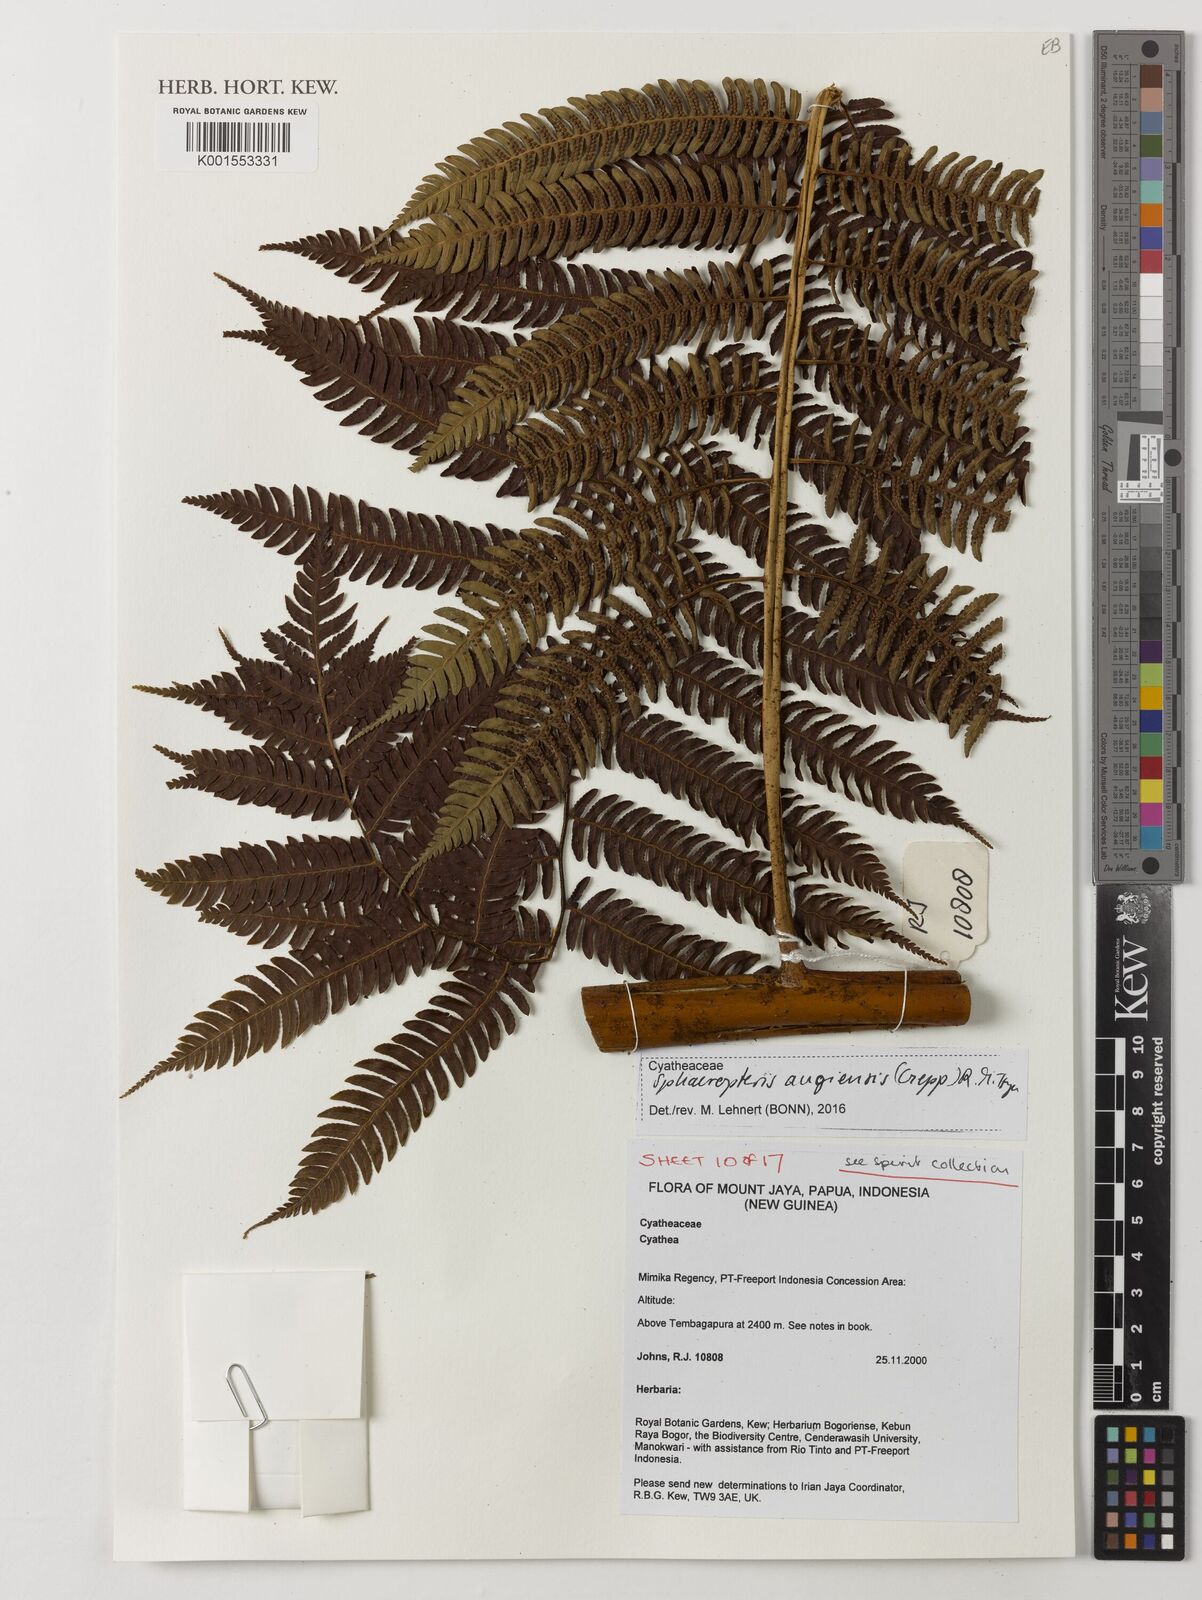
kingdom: Plantae
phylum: Tracheophyta
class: Polypodiopsida
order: Cyatheales
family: Cyatheaceae
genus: Sphaeropteris
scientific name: Sphaeropteris
